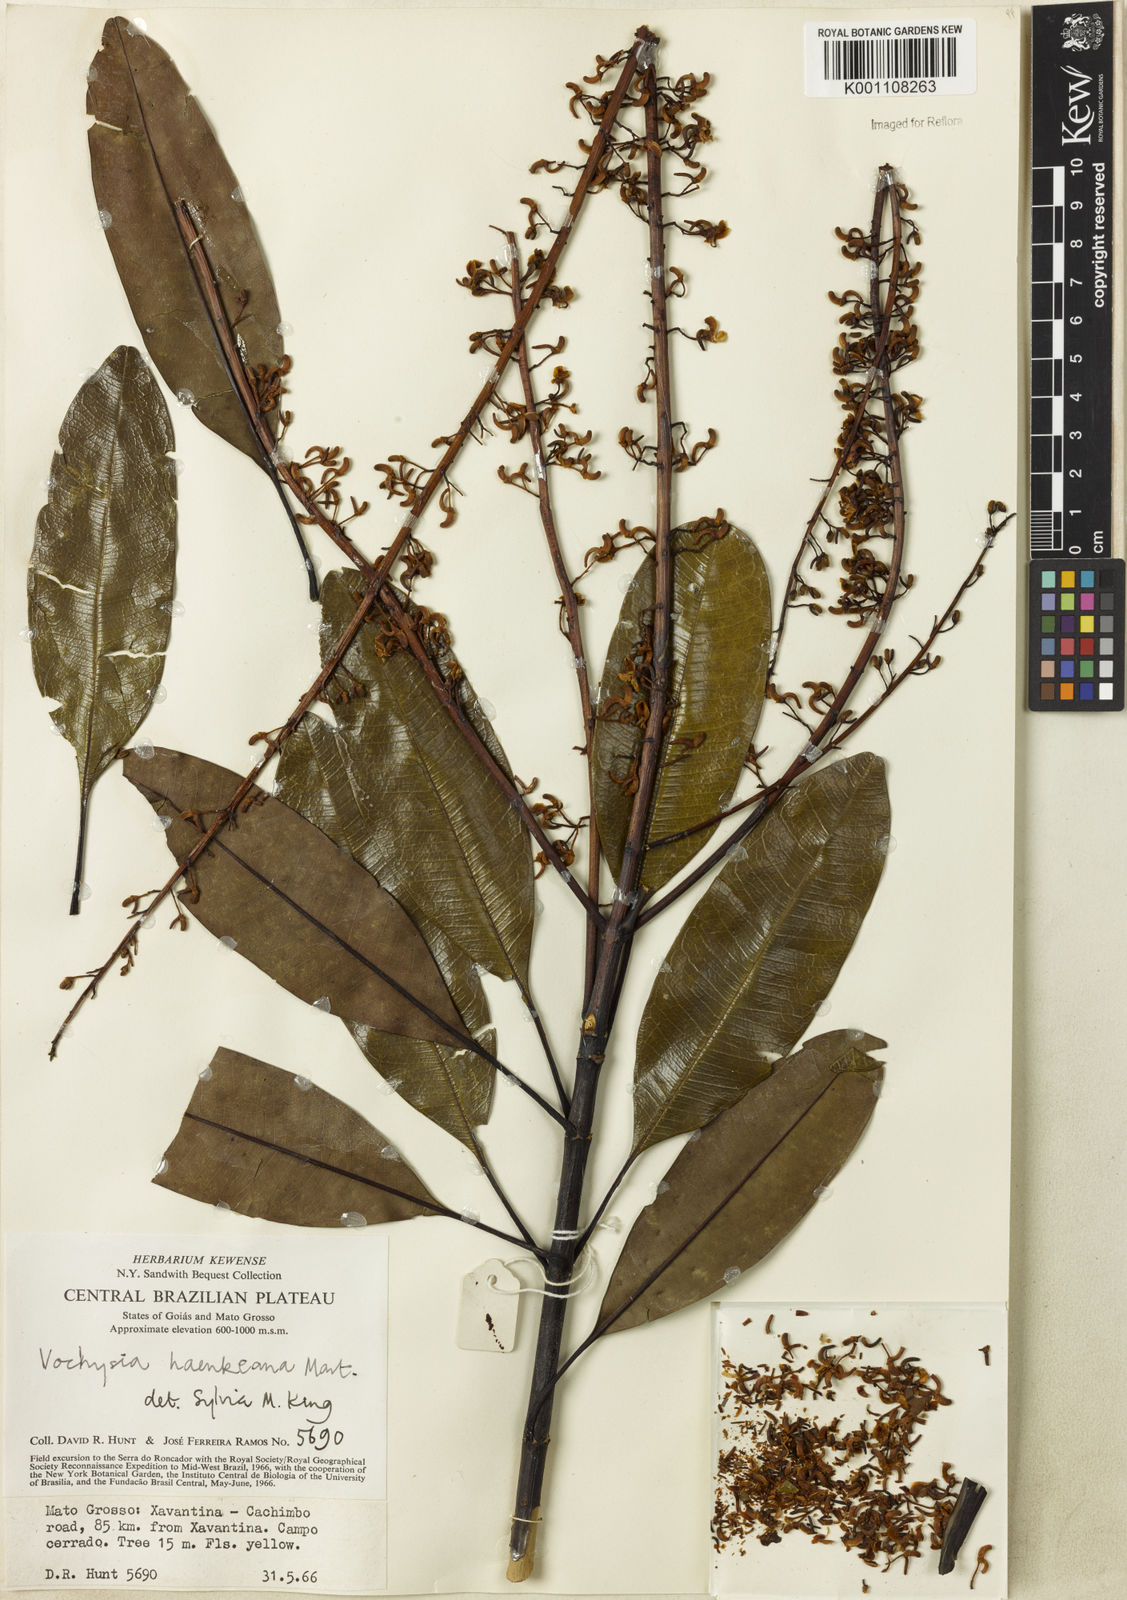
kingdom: Plantae
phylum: Tracheophyta
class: Magnoliopsida
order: Myrtales
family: Vochysiaceae
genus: Vochysia
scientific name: Vochysia haenkeana
